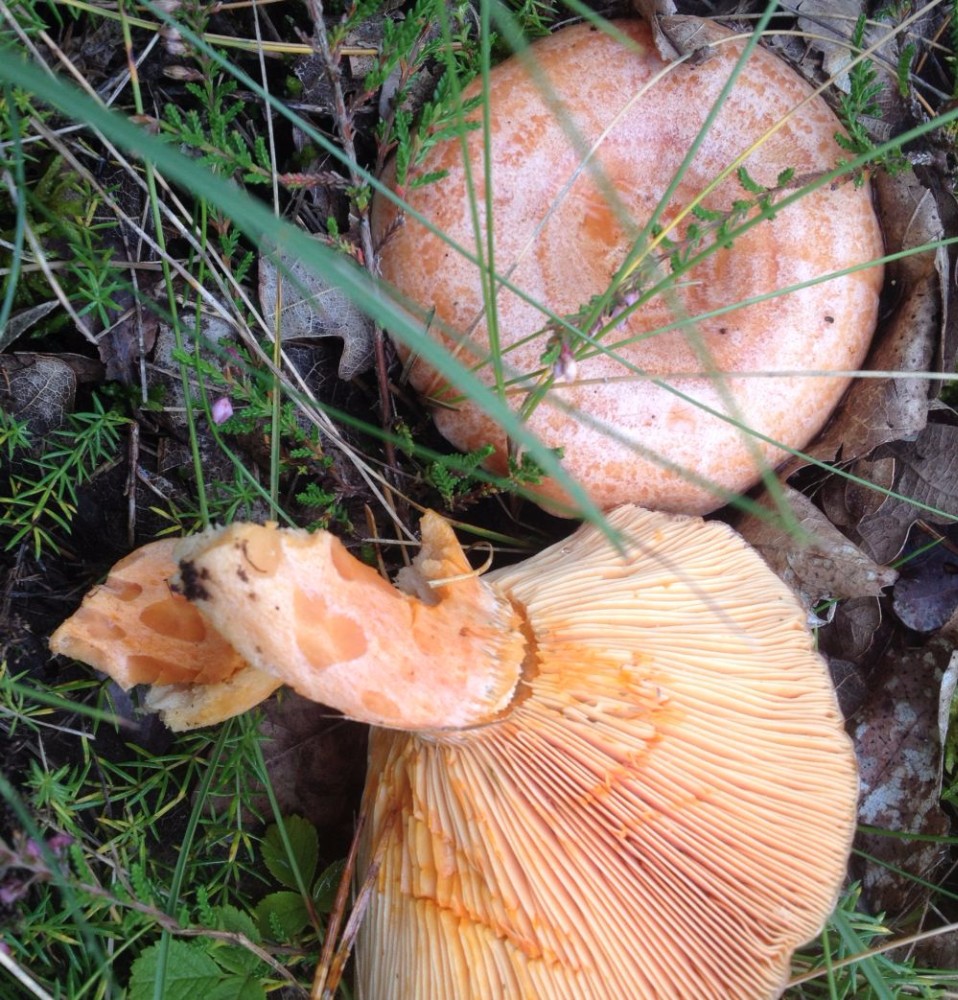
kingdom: Fungi
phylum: Basidiomycota
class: Agaricomycetes
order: Russulales
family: Russulaceae
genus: Lactarius
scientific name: Lactarius deliciosus
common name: velsmagende mælkehat
